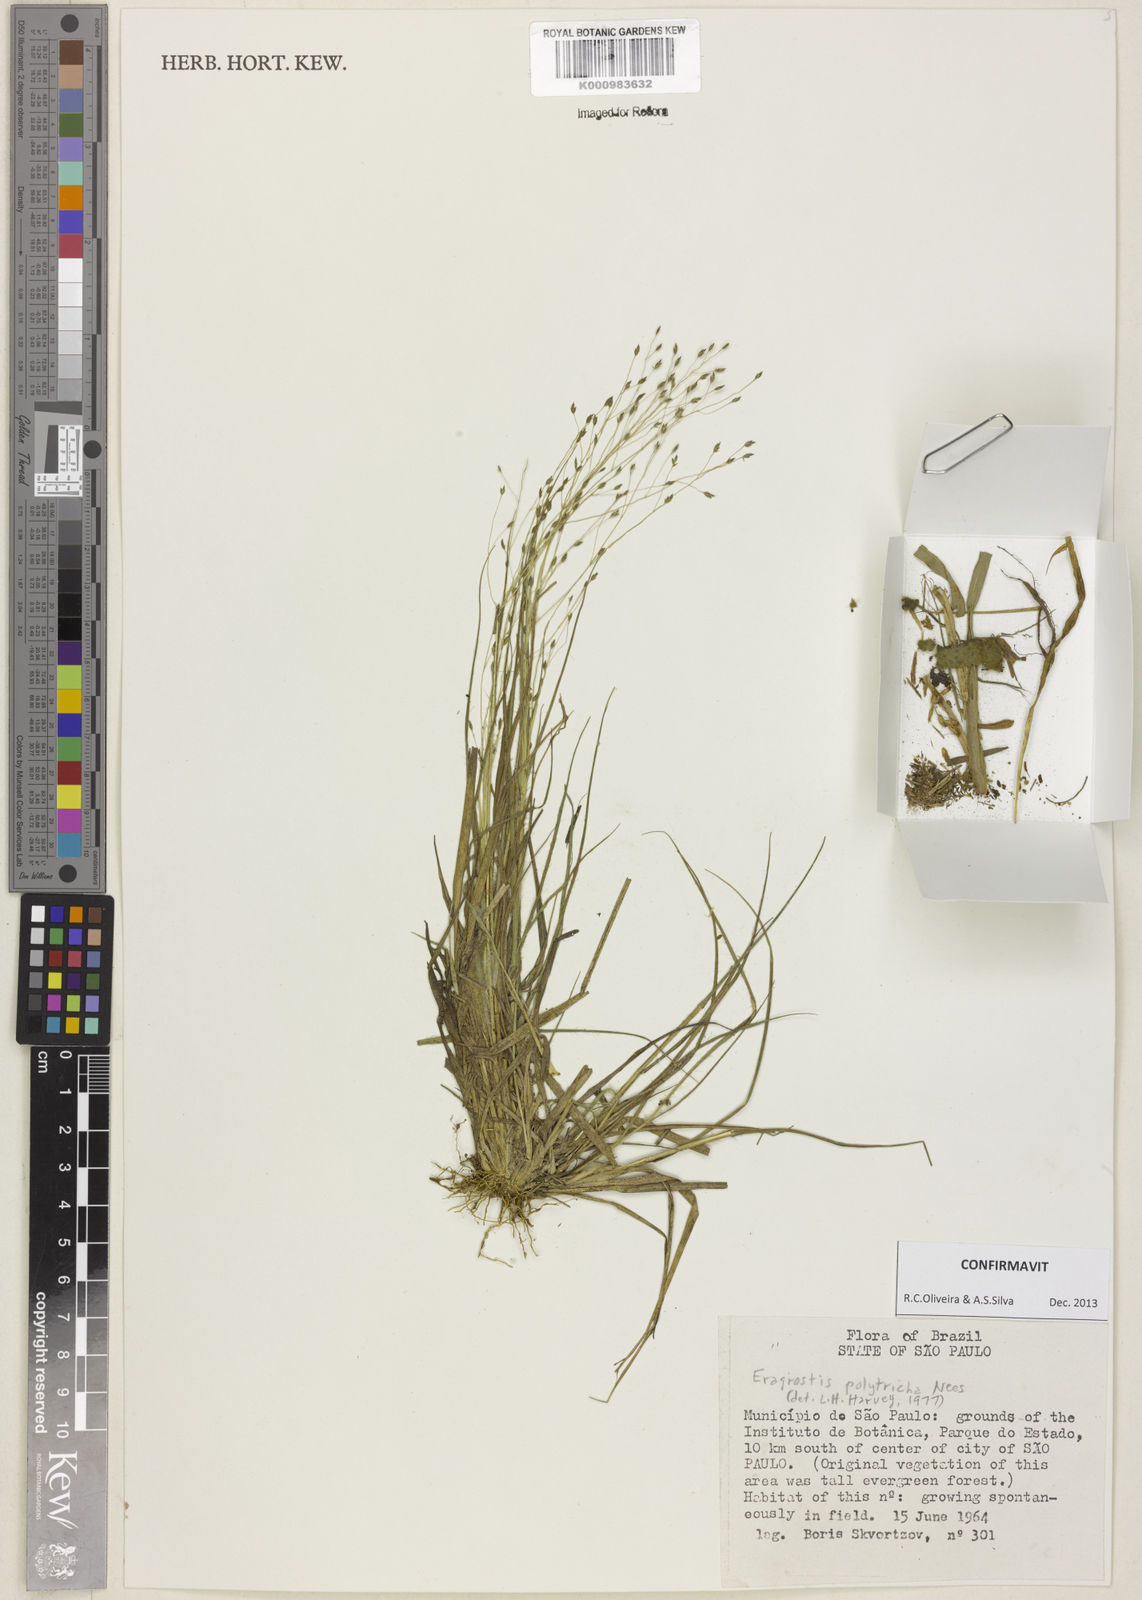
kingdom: Plantae
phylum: Tracheophyta
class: Liliopsida
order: Poales
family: Poaceae
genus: Eragrostis
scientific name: Eragrostis polytricha
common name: Hairy-sheath love grass
